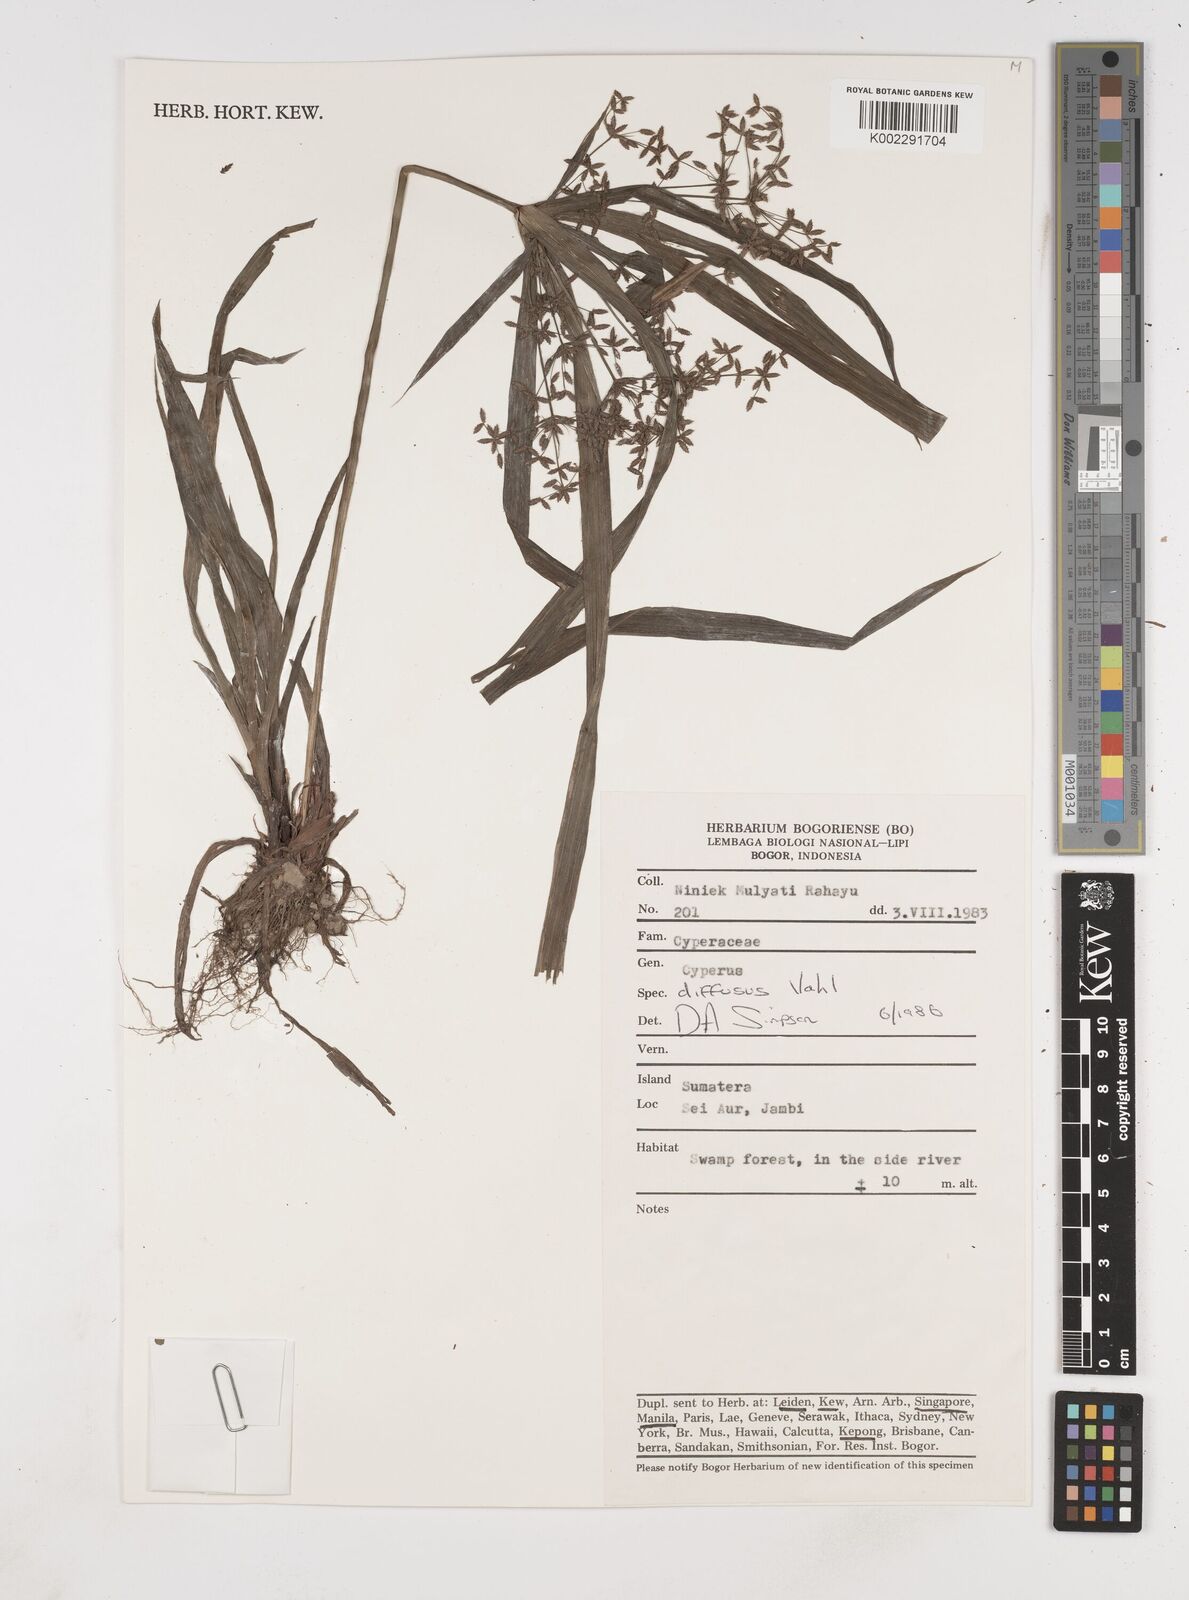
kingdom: Plantae
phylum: Tracheophyta
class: Liliopsida
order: Poales
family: Cyperaceae
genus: Cyperus
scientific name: Cyperus diffusus
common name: Dwarf umbrella grass
